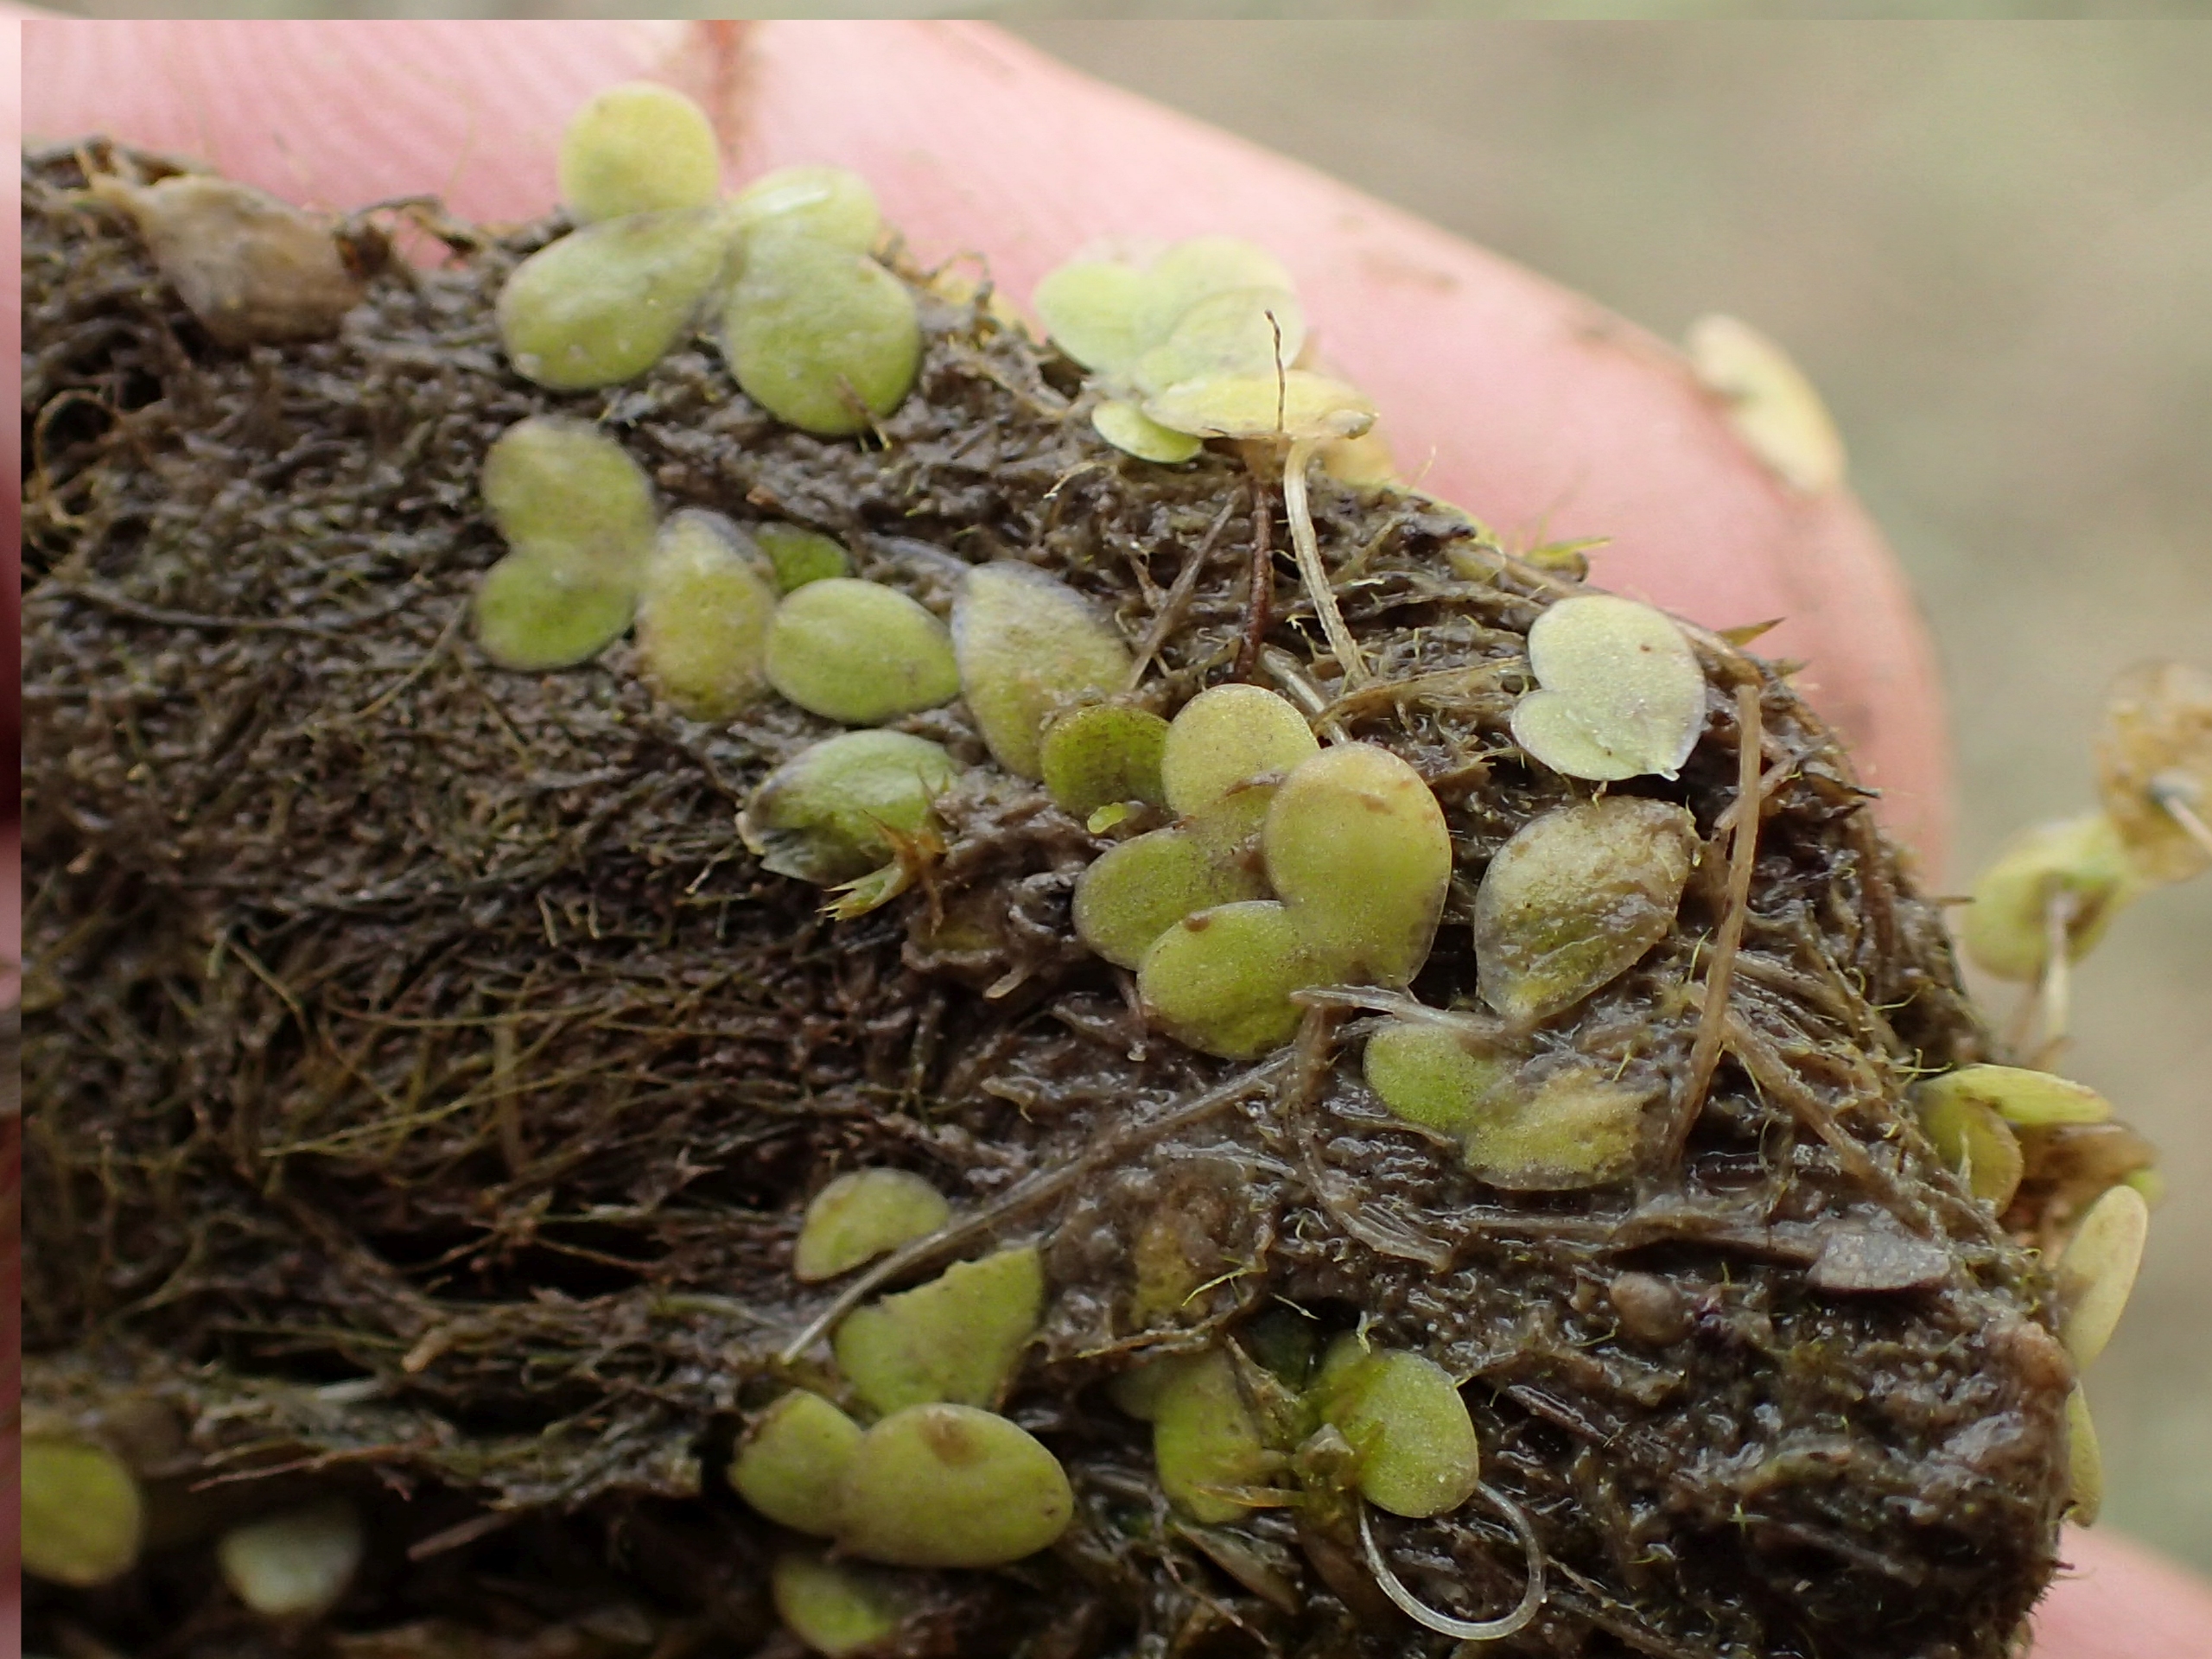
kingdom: Plantae
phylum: Tracheophyta
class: Liliopsida
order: Alismatales
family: Araceae
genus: Lemna
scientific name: Lemna minor
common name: Liden andemad
